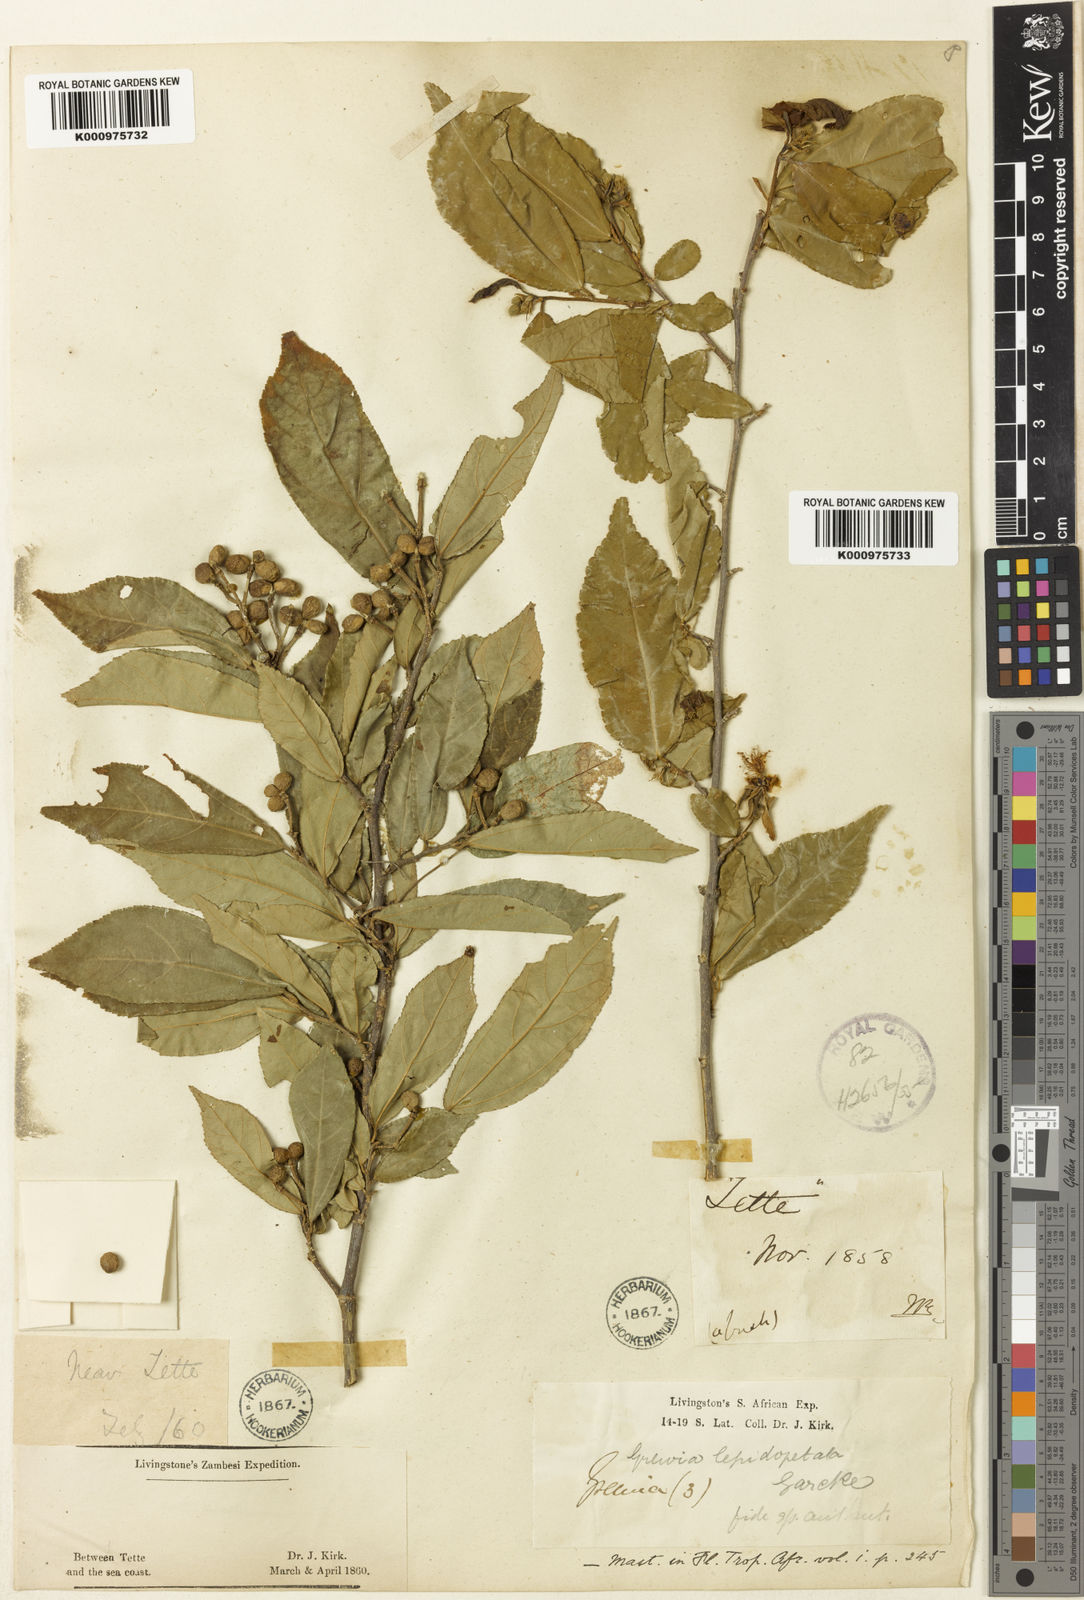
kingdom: Plantae
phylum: Tracheophyta
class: Magnoliopsida
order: Malvales
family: Malvaceae
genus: Grewia
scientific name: Grewia lepidopetala
